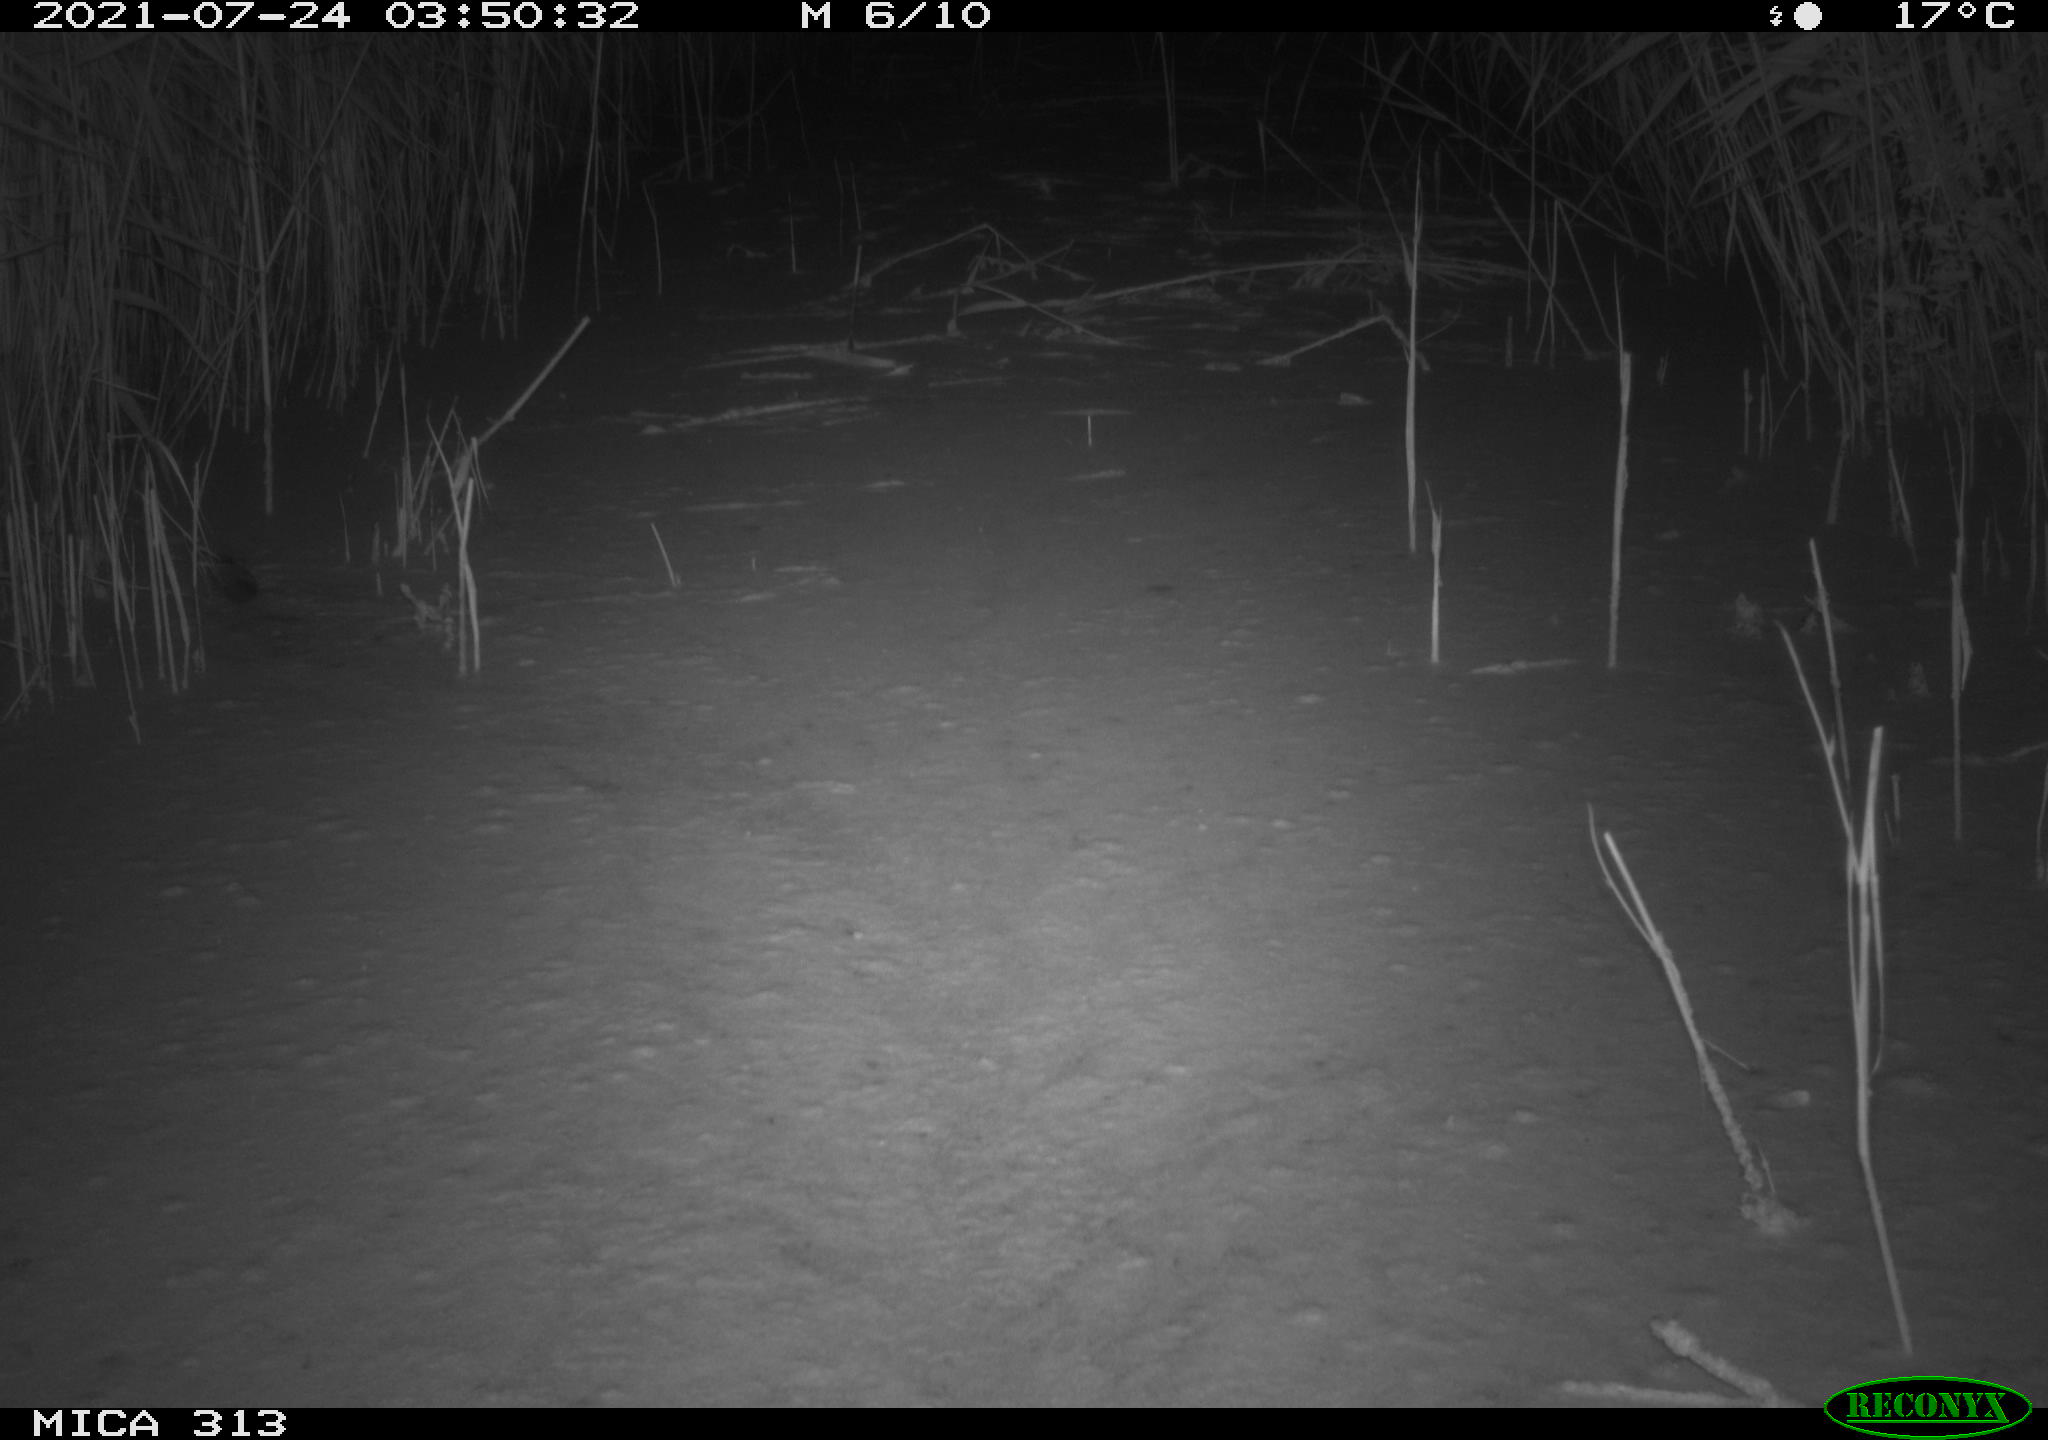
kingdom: Animalia
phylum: Chordata
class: Mammalia
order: Rodentia
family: Cricetidae
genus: Arvicola
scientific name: Arvicola amphibius
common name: European water vole
